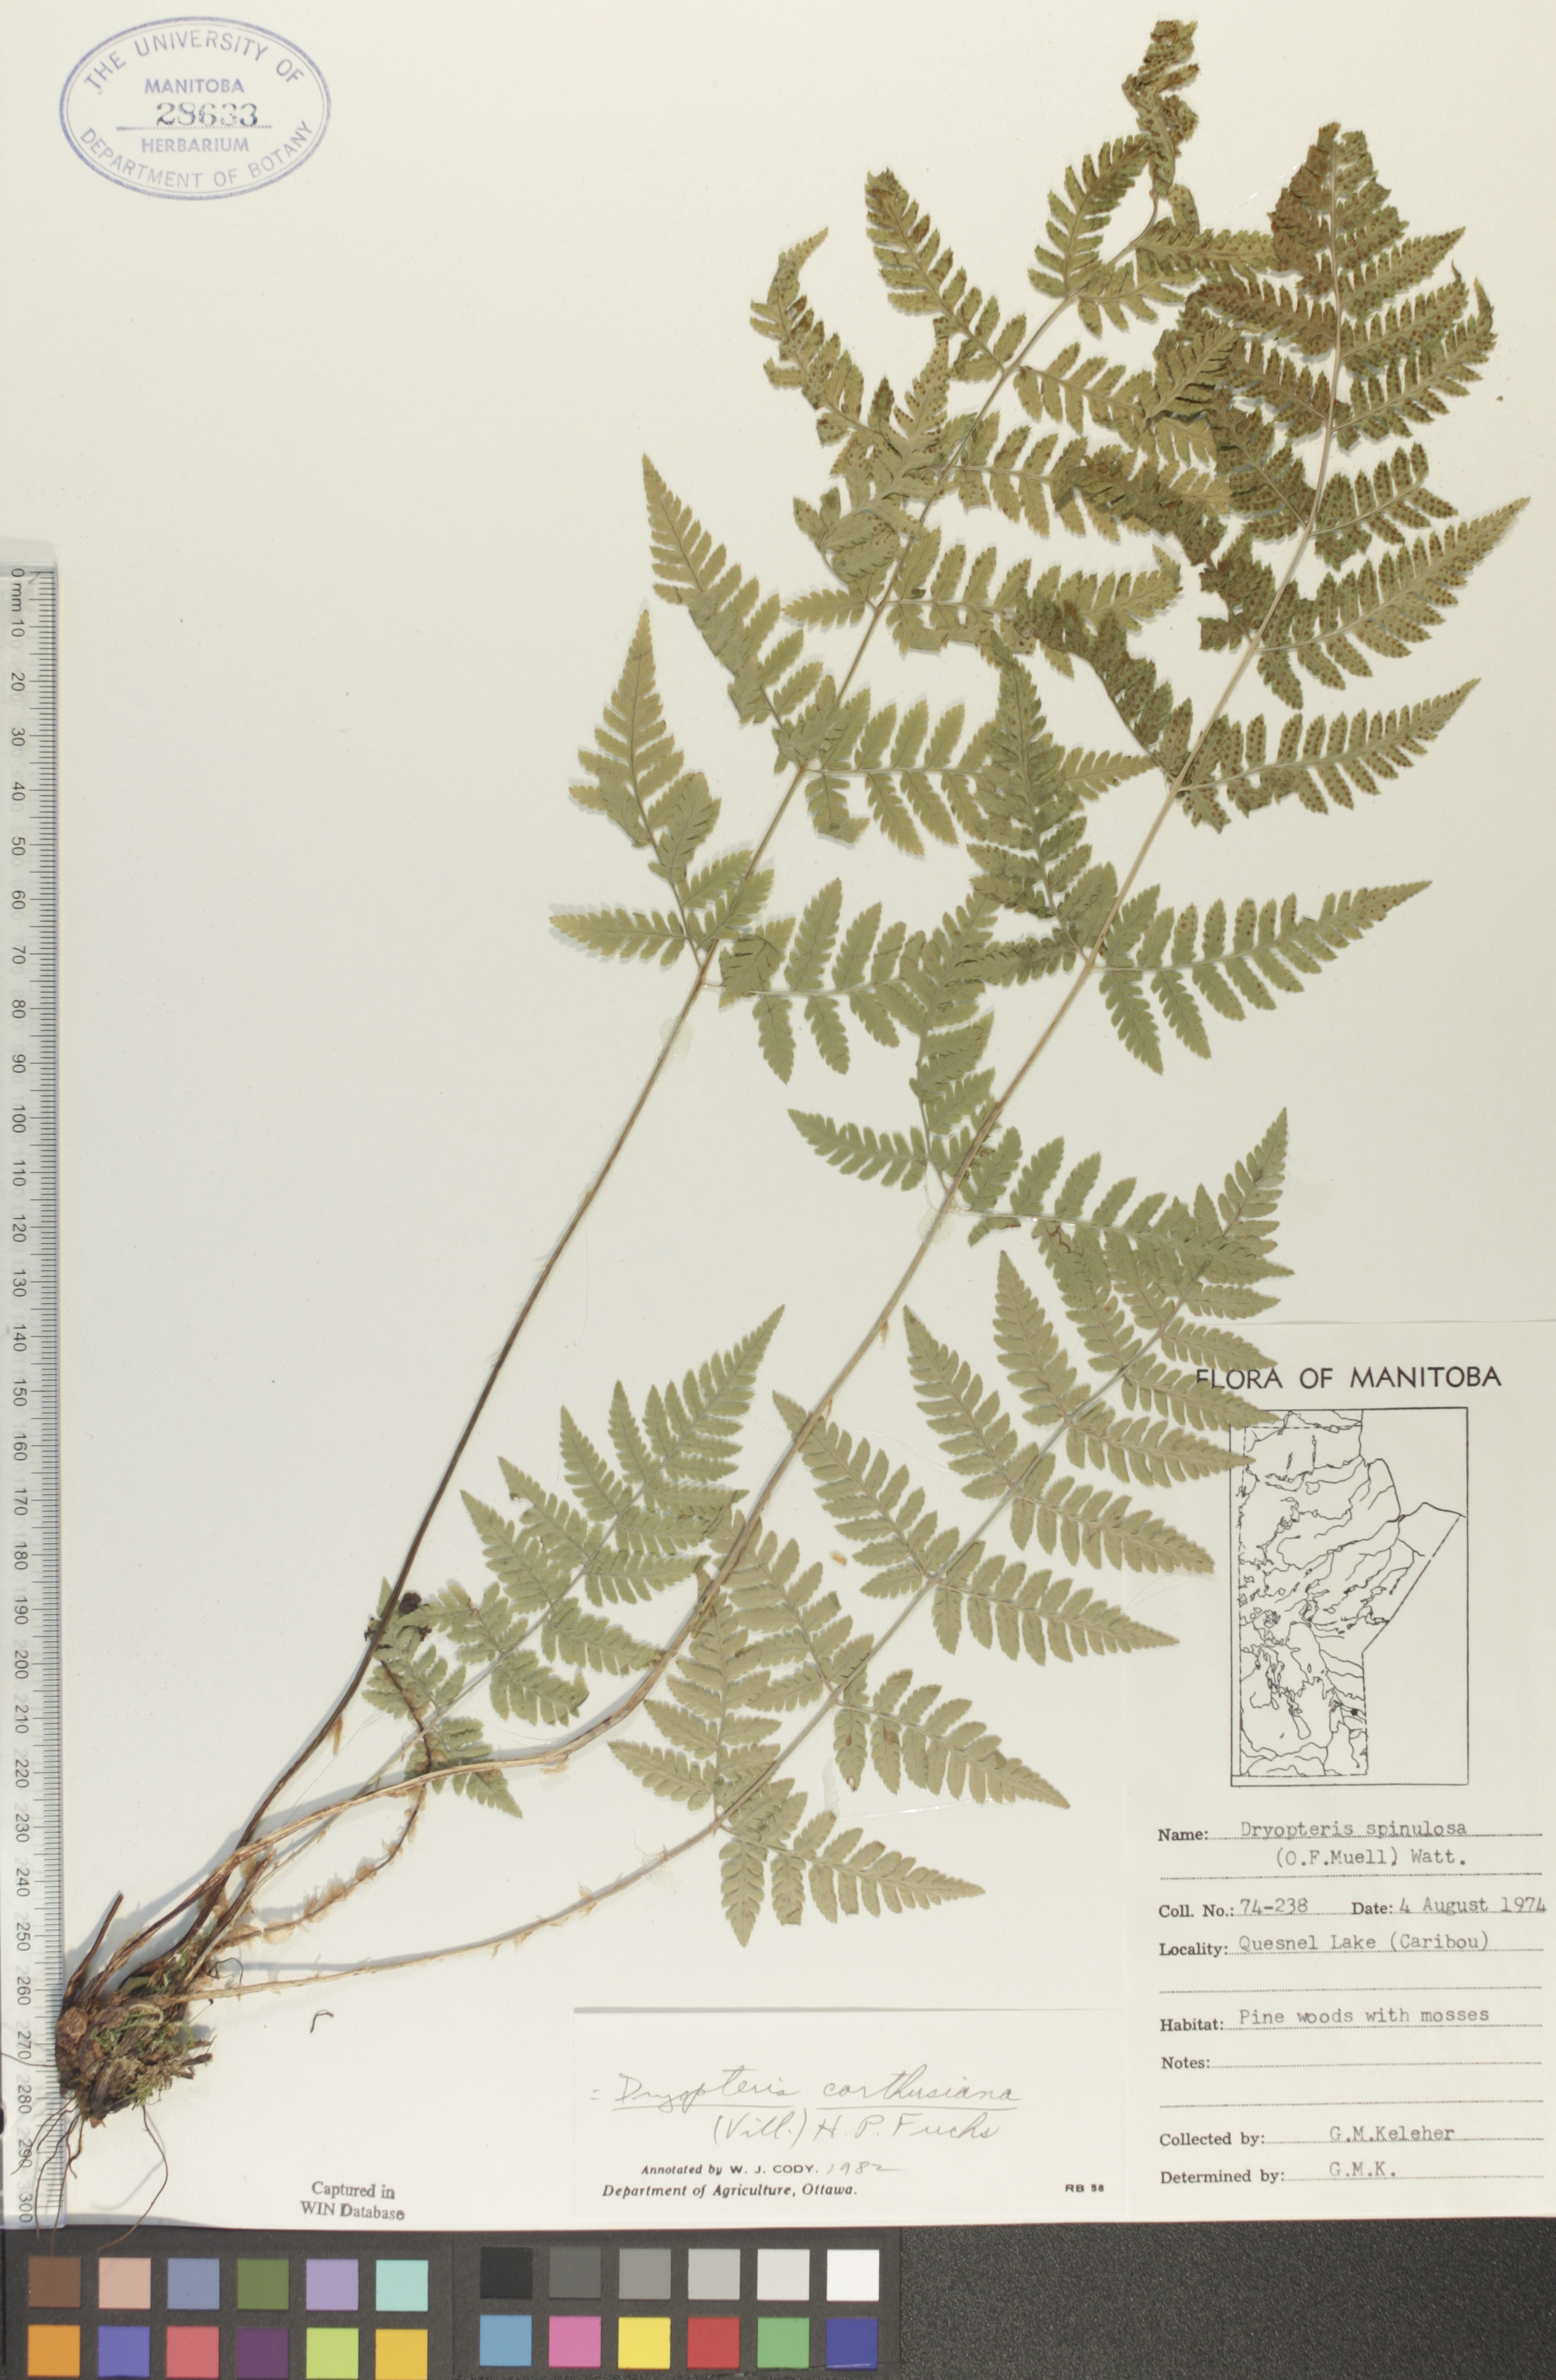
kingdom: Plantae
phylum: Tracheophyta
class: Polypodiopsida
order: Polypodiales
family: Dryopteridaceae
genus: Dryopteris
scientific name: Dryopteris carthusiana
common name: Narrow buckler-fern
